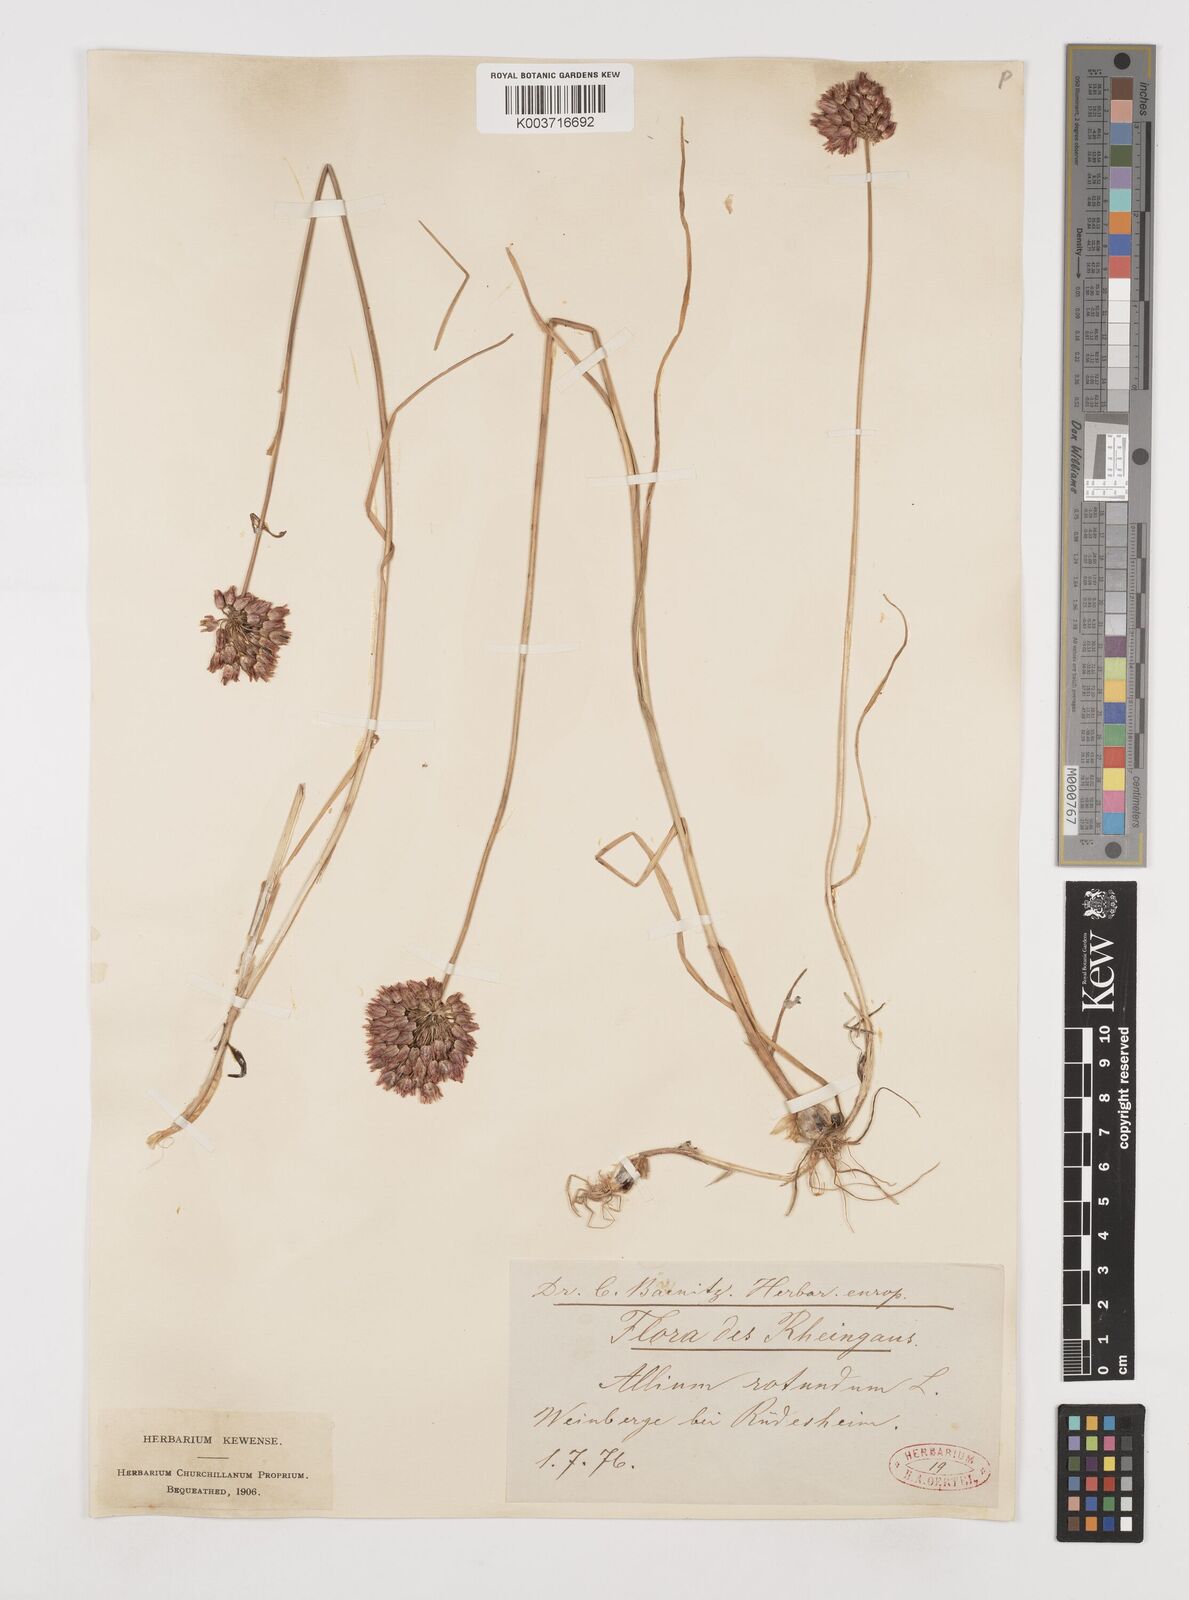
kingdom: Plantae
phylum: Tracheophyta
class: Liliopsida
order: Asparagales
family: Amaryllidaceae
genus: Allium
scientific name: Allium rotundum
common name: Sand leek
